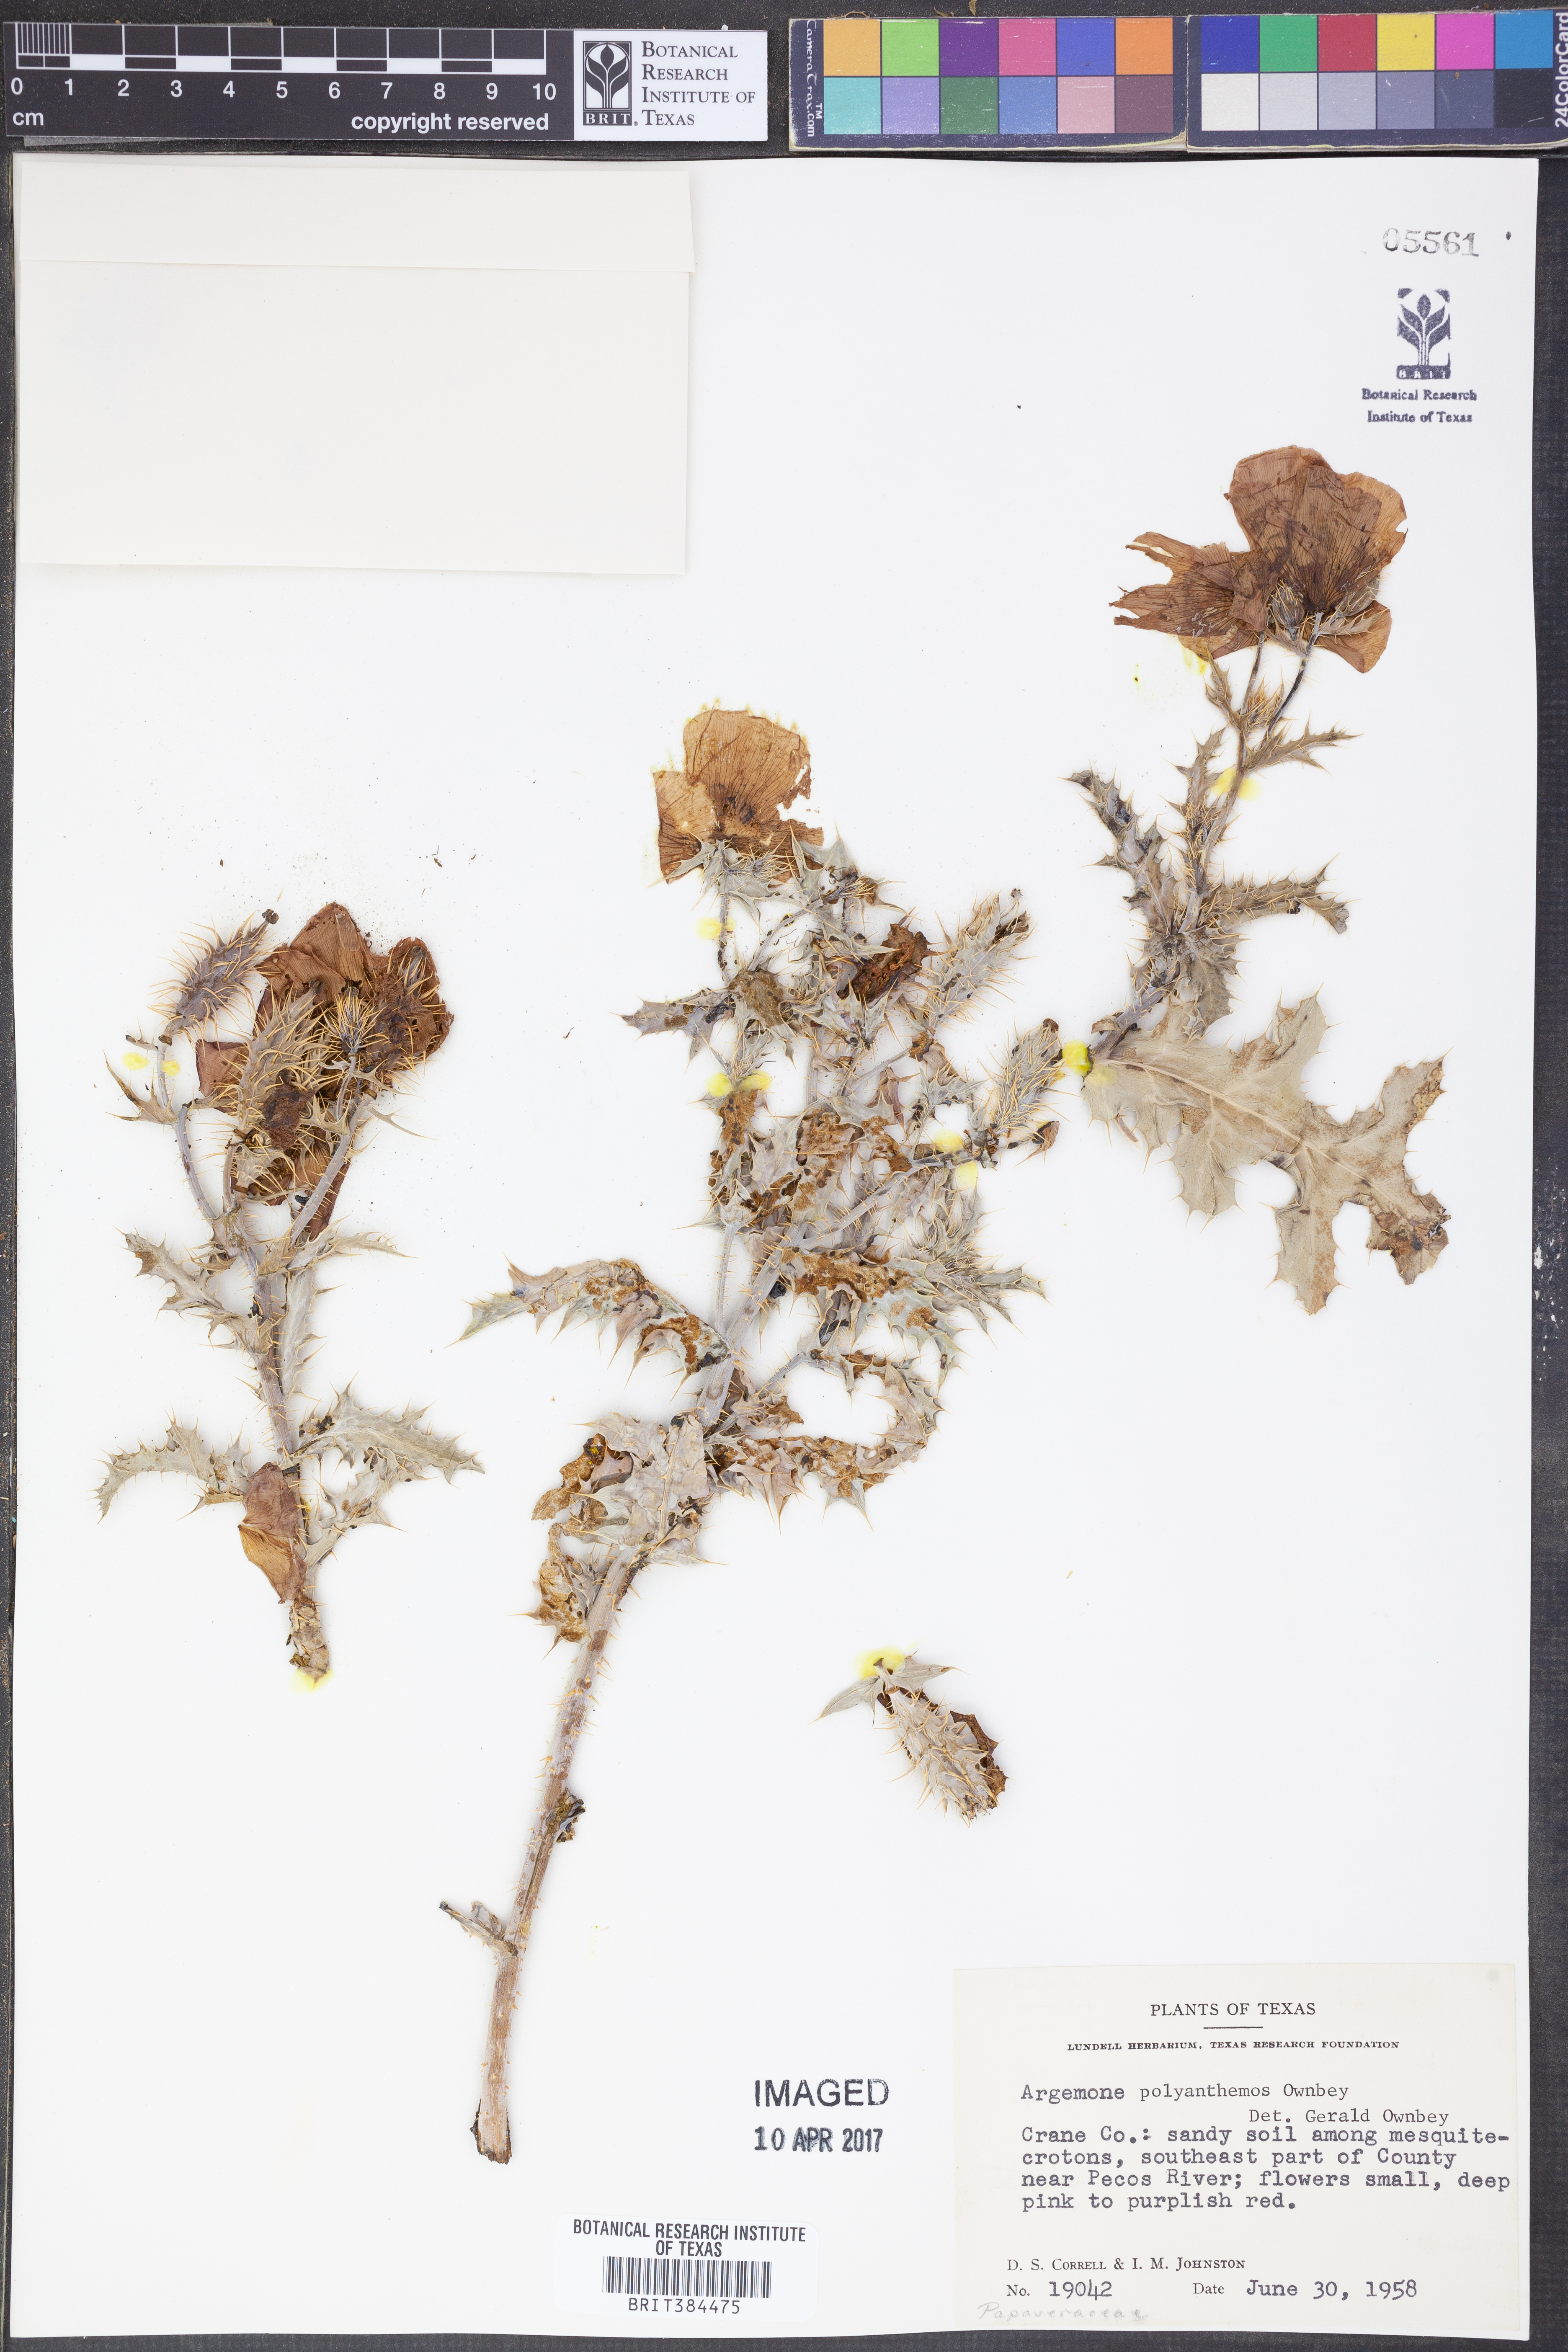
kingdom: Plantae
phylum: Tracheophyta
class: Magnoliopsida
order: Ranunculales
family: Papaveraceae
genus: Argemone
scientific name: Argemone polyanthemos
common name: Plains prickly-poppy
